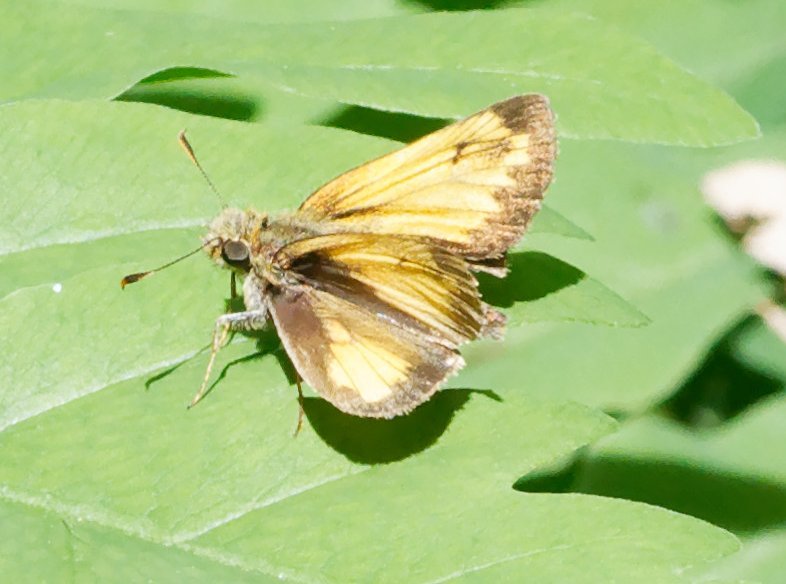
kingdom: Animalia
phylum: Arthropoda
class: Insecta
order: Lepidoptera
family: Hesperiidae
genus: Lon
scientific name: Lon hobomok
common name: Hobomok Skipper
